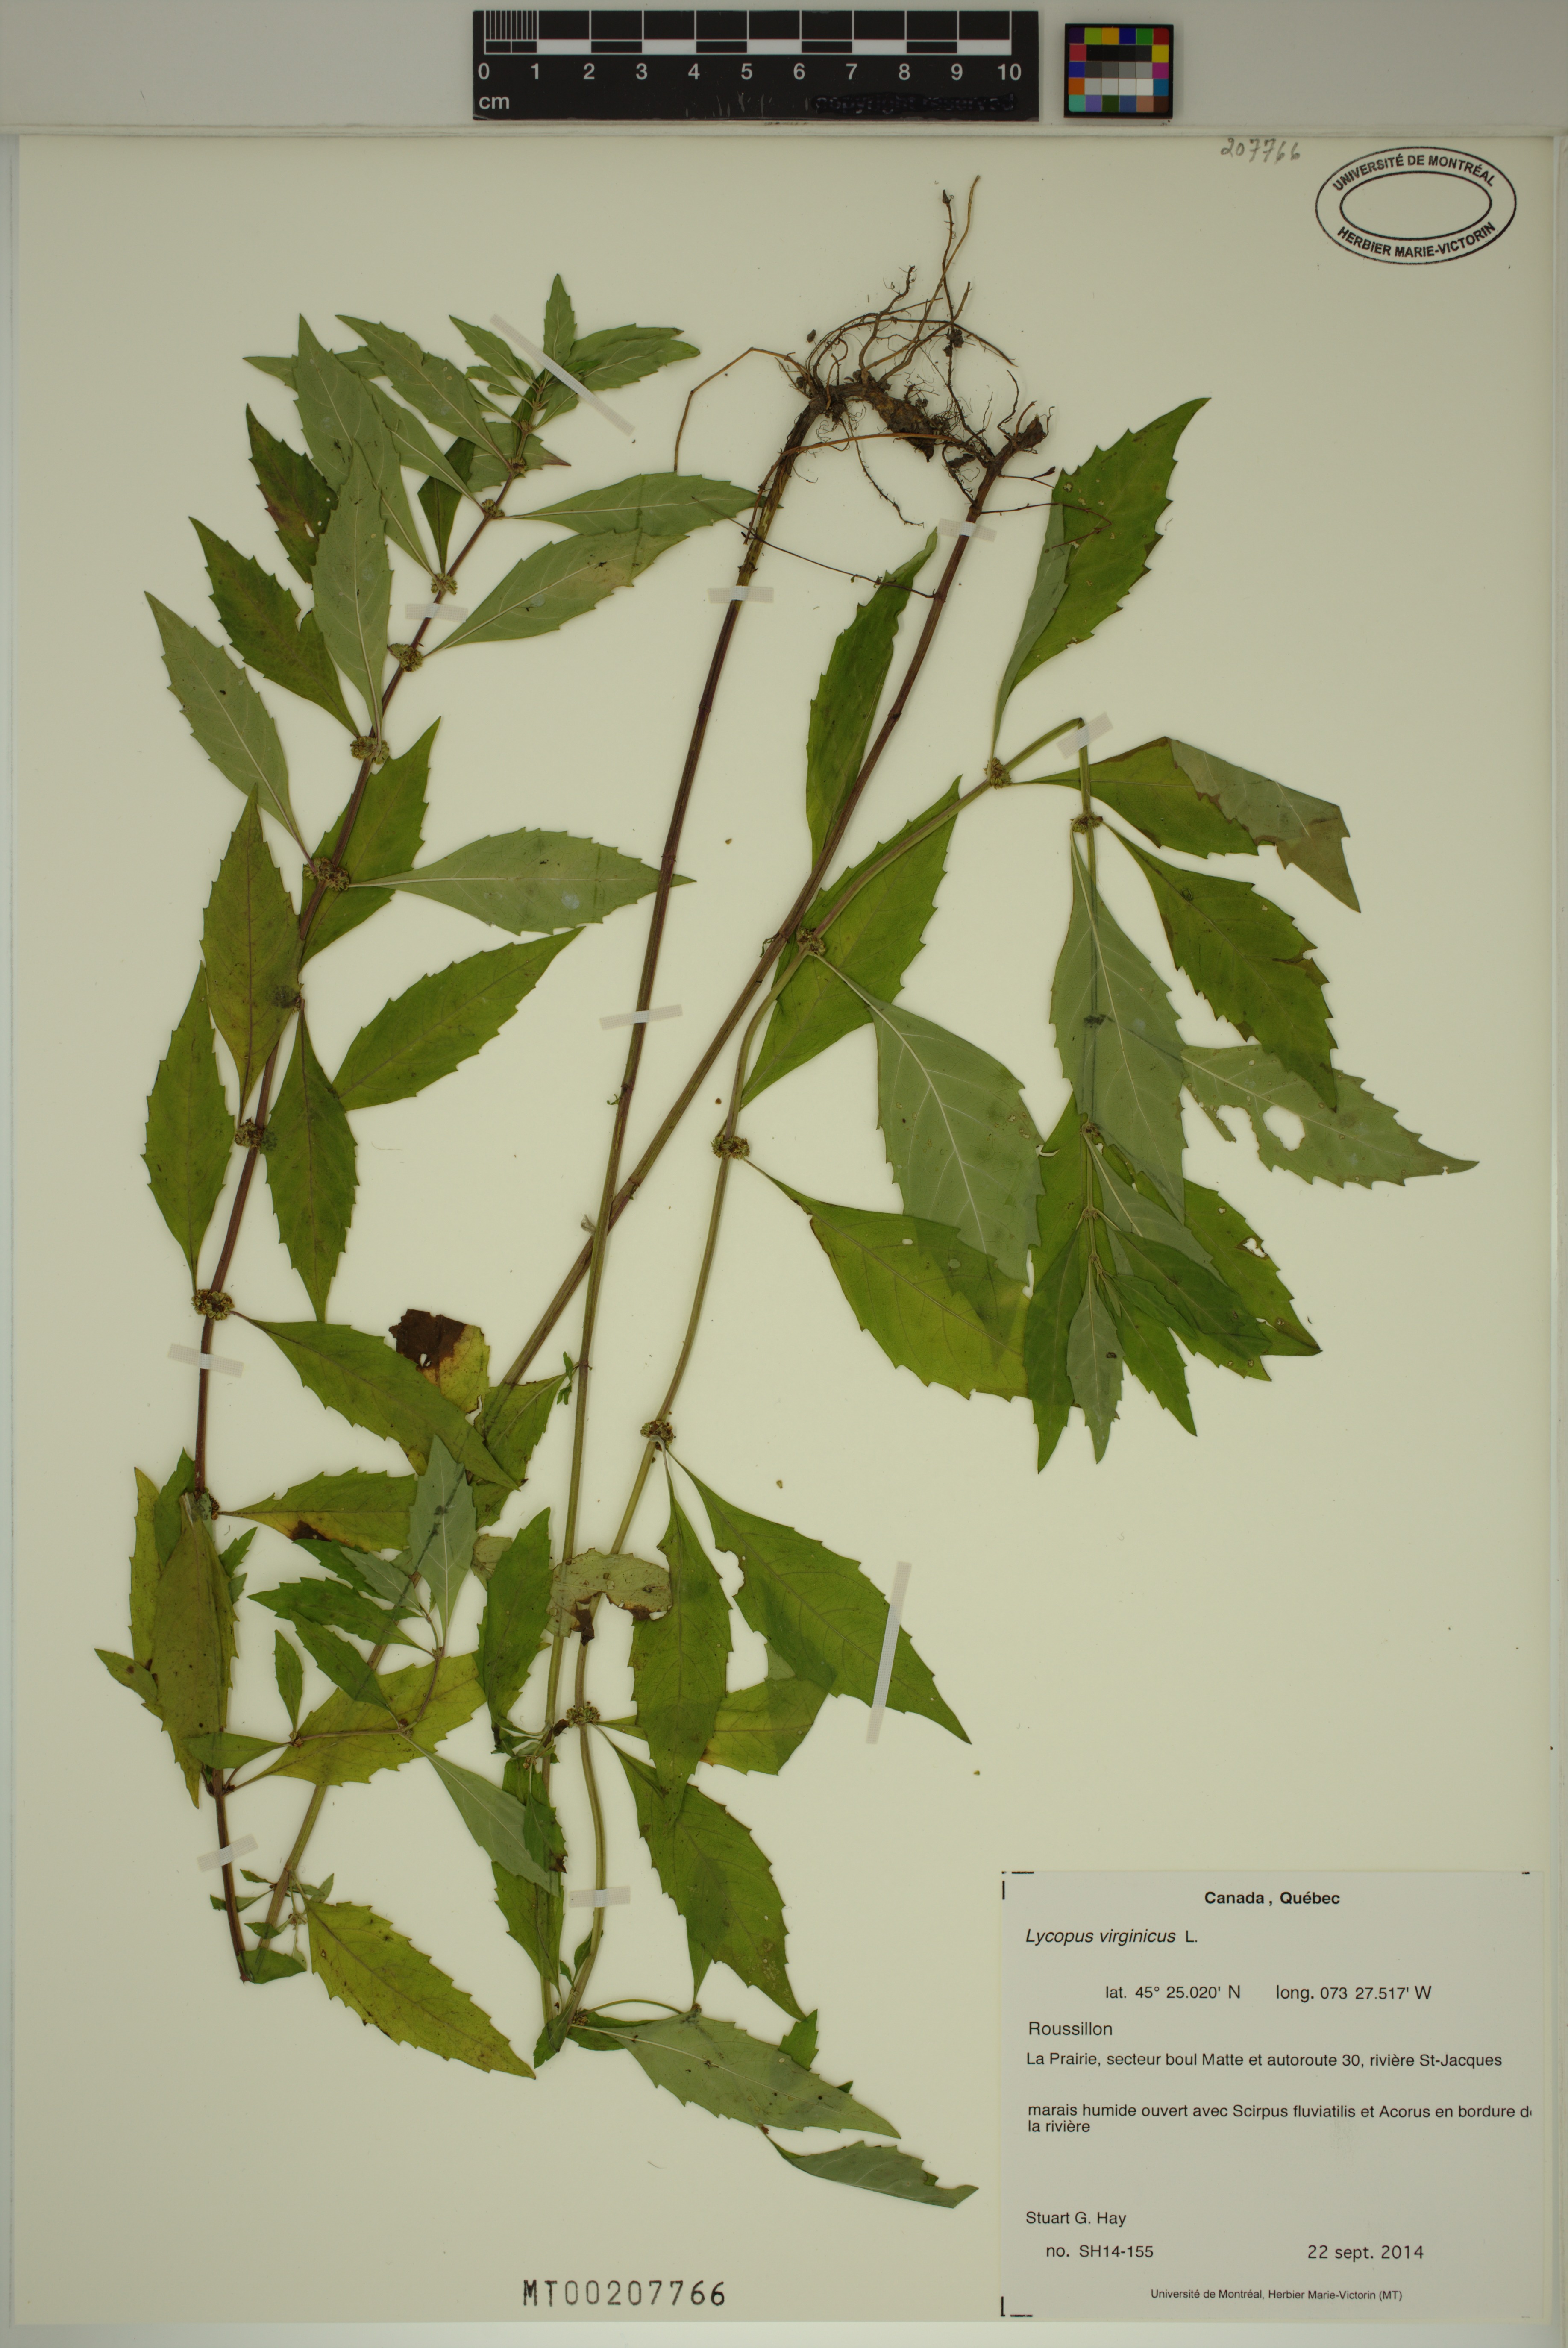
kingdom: Plantae
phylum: Tracheophyta
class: Magnoliopsida
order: Lamiales
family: Lamiaceae
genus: Lycopus
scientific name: Lycopus virginicus
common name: Bugleweed
